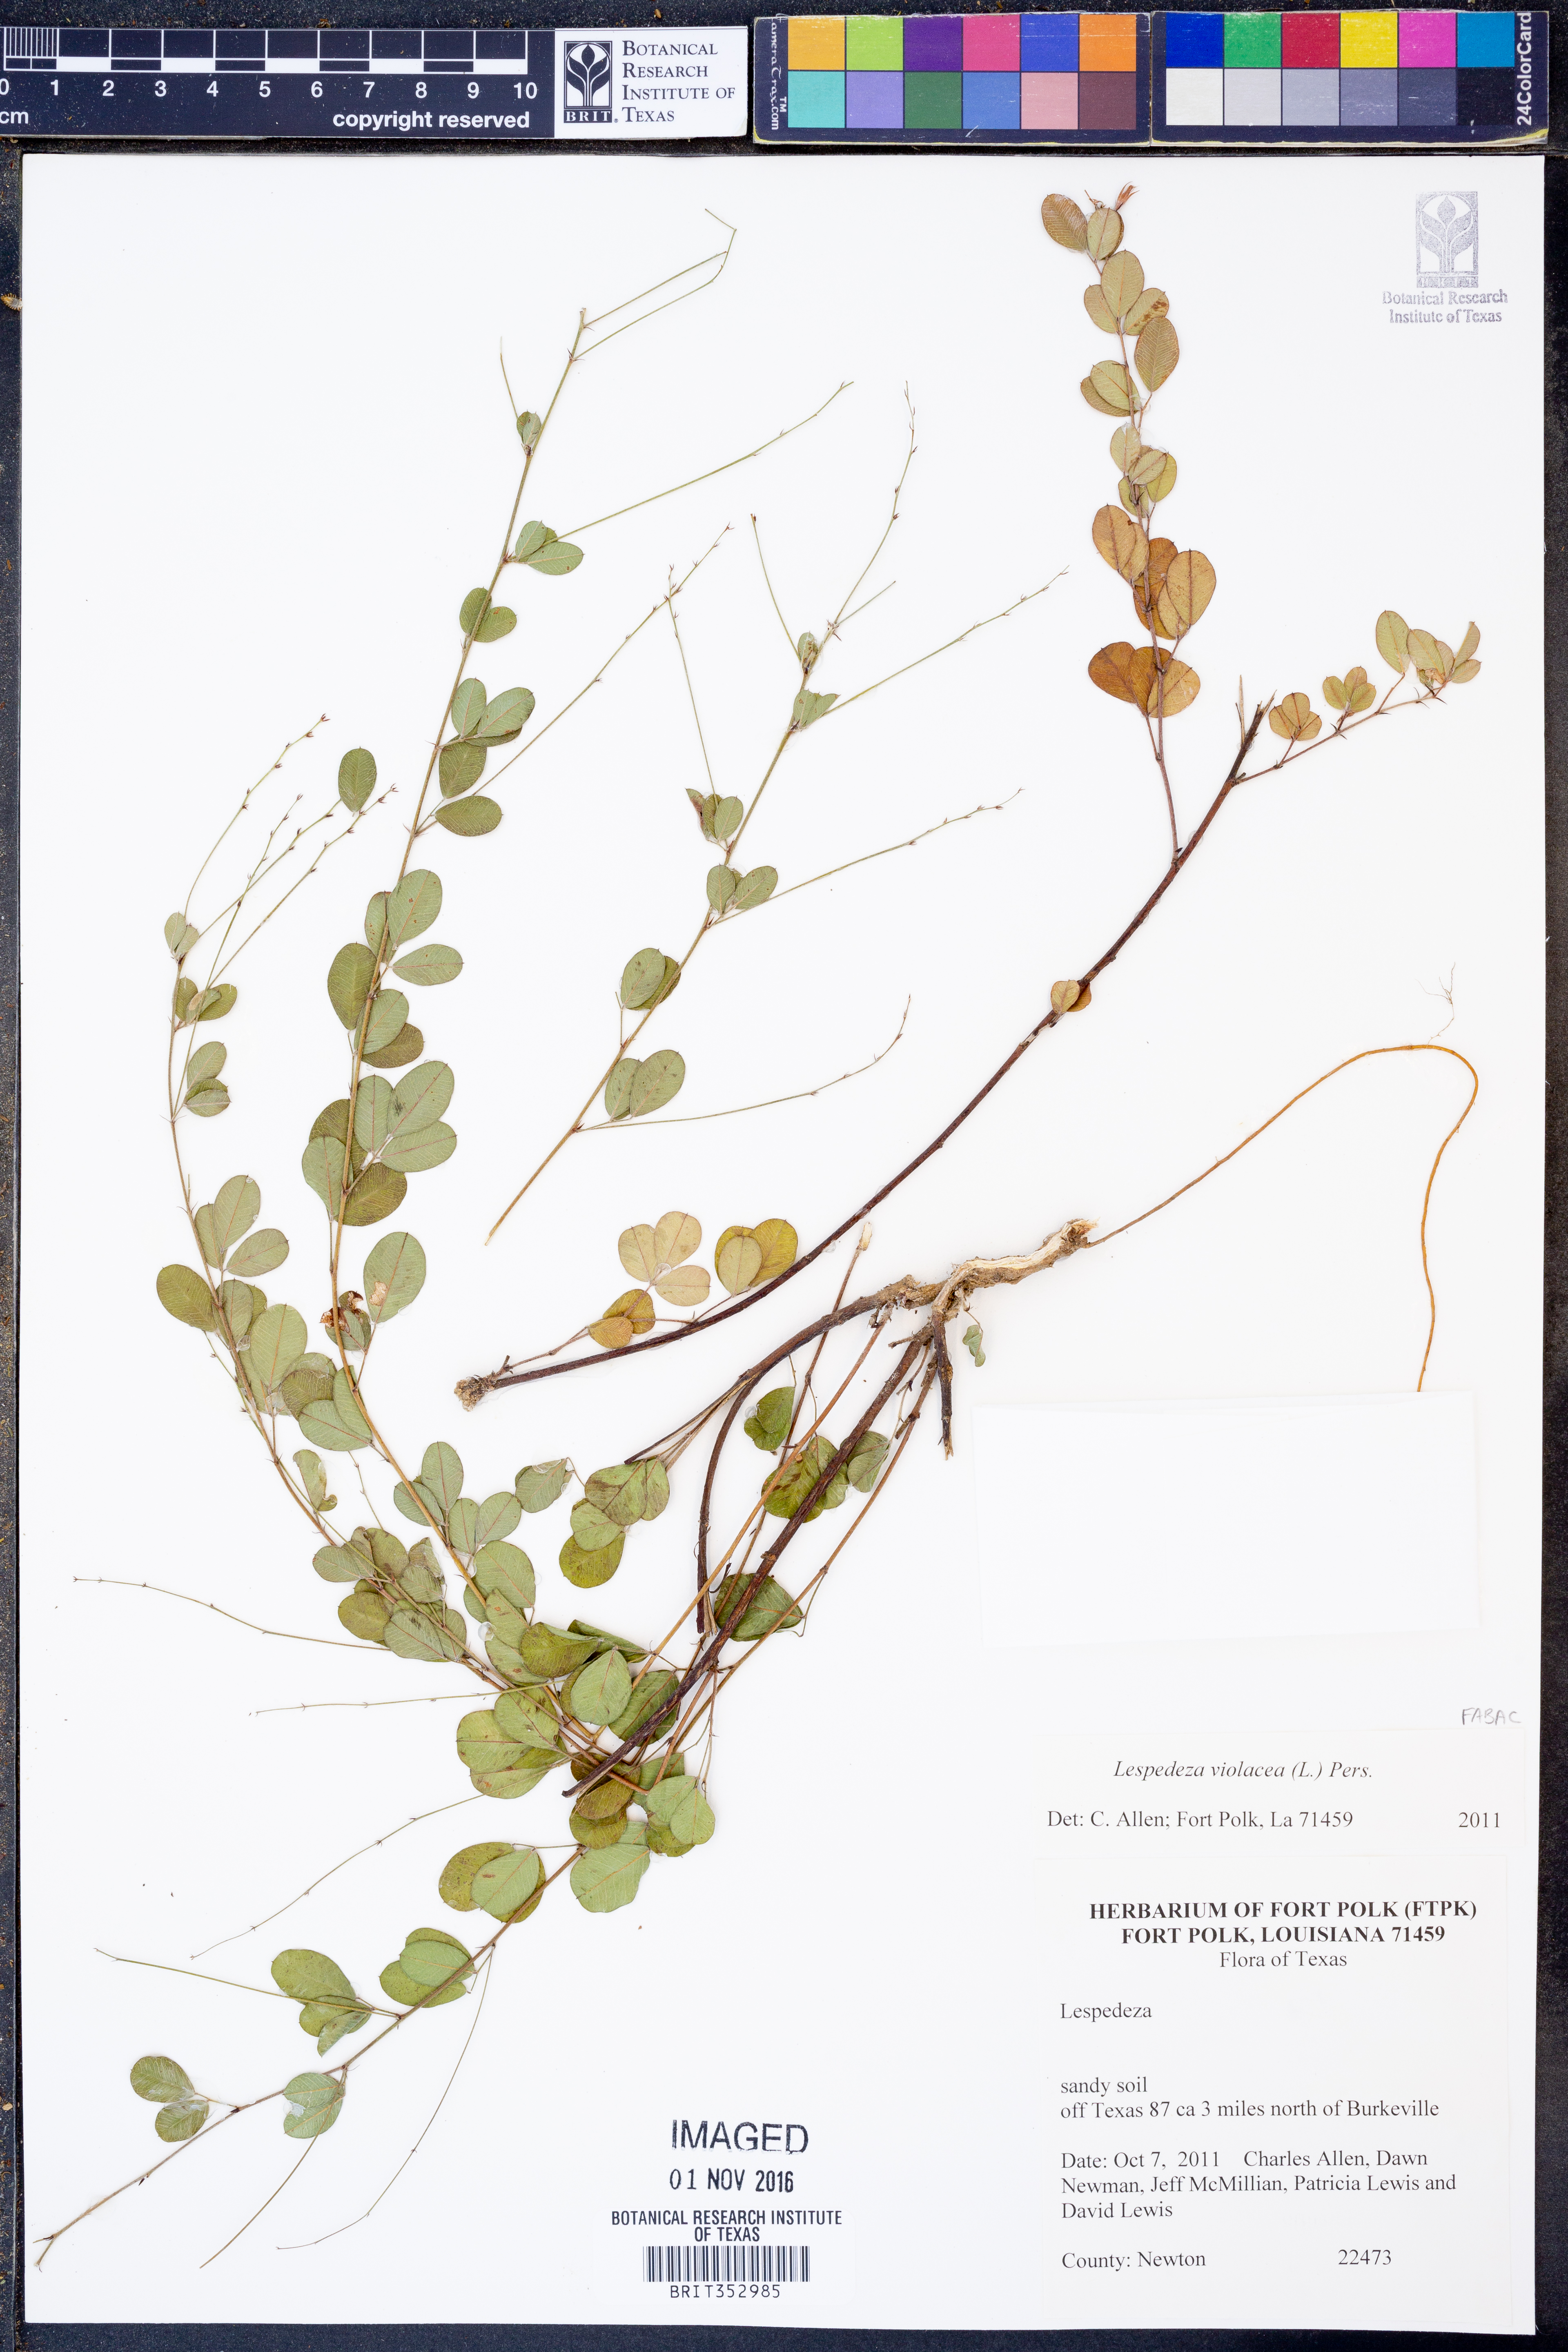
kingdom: Plantae
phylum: Tracheophyta
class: Magnoliopsida
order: Fabales
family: Fabaceae
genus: Lespedeza
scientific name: Lespedeza violacea
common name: Wand bush-clover
